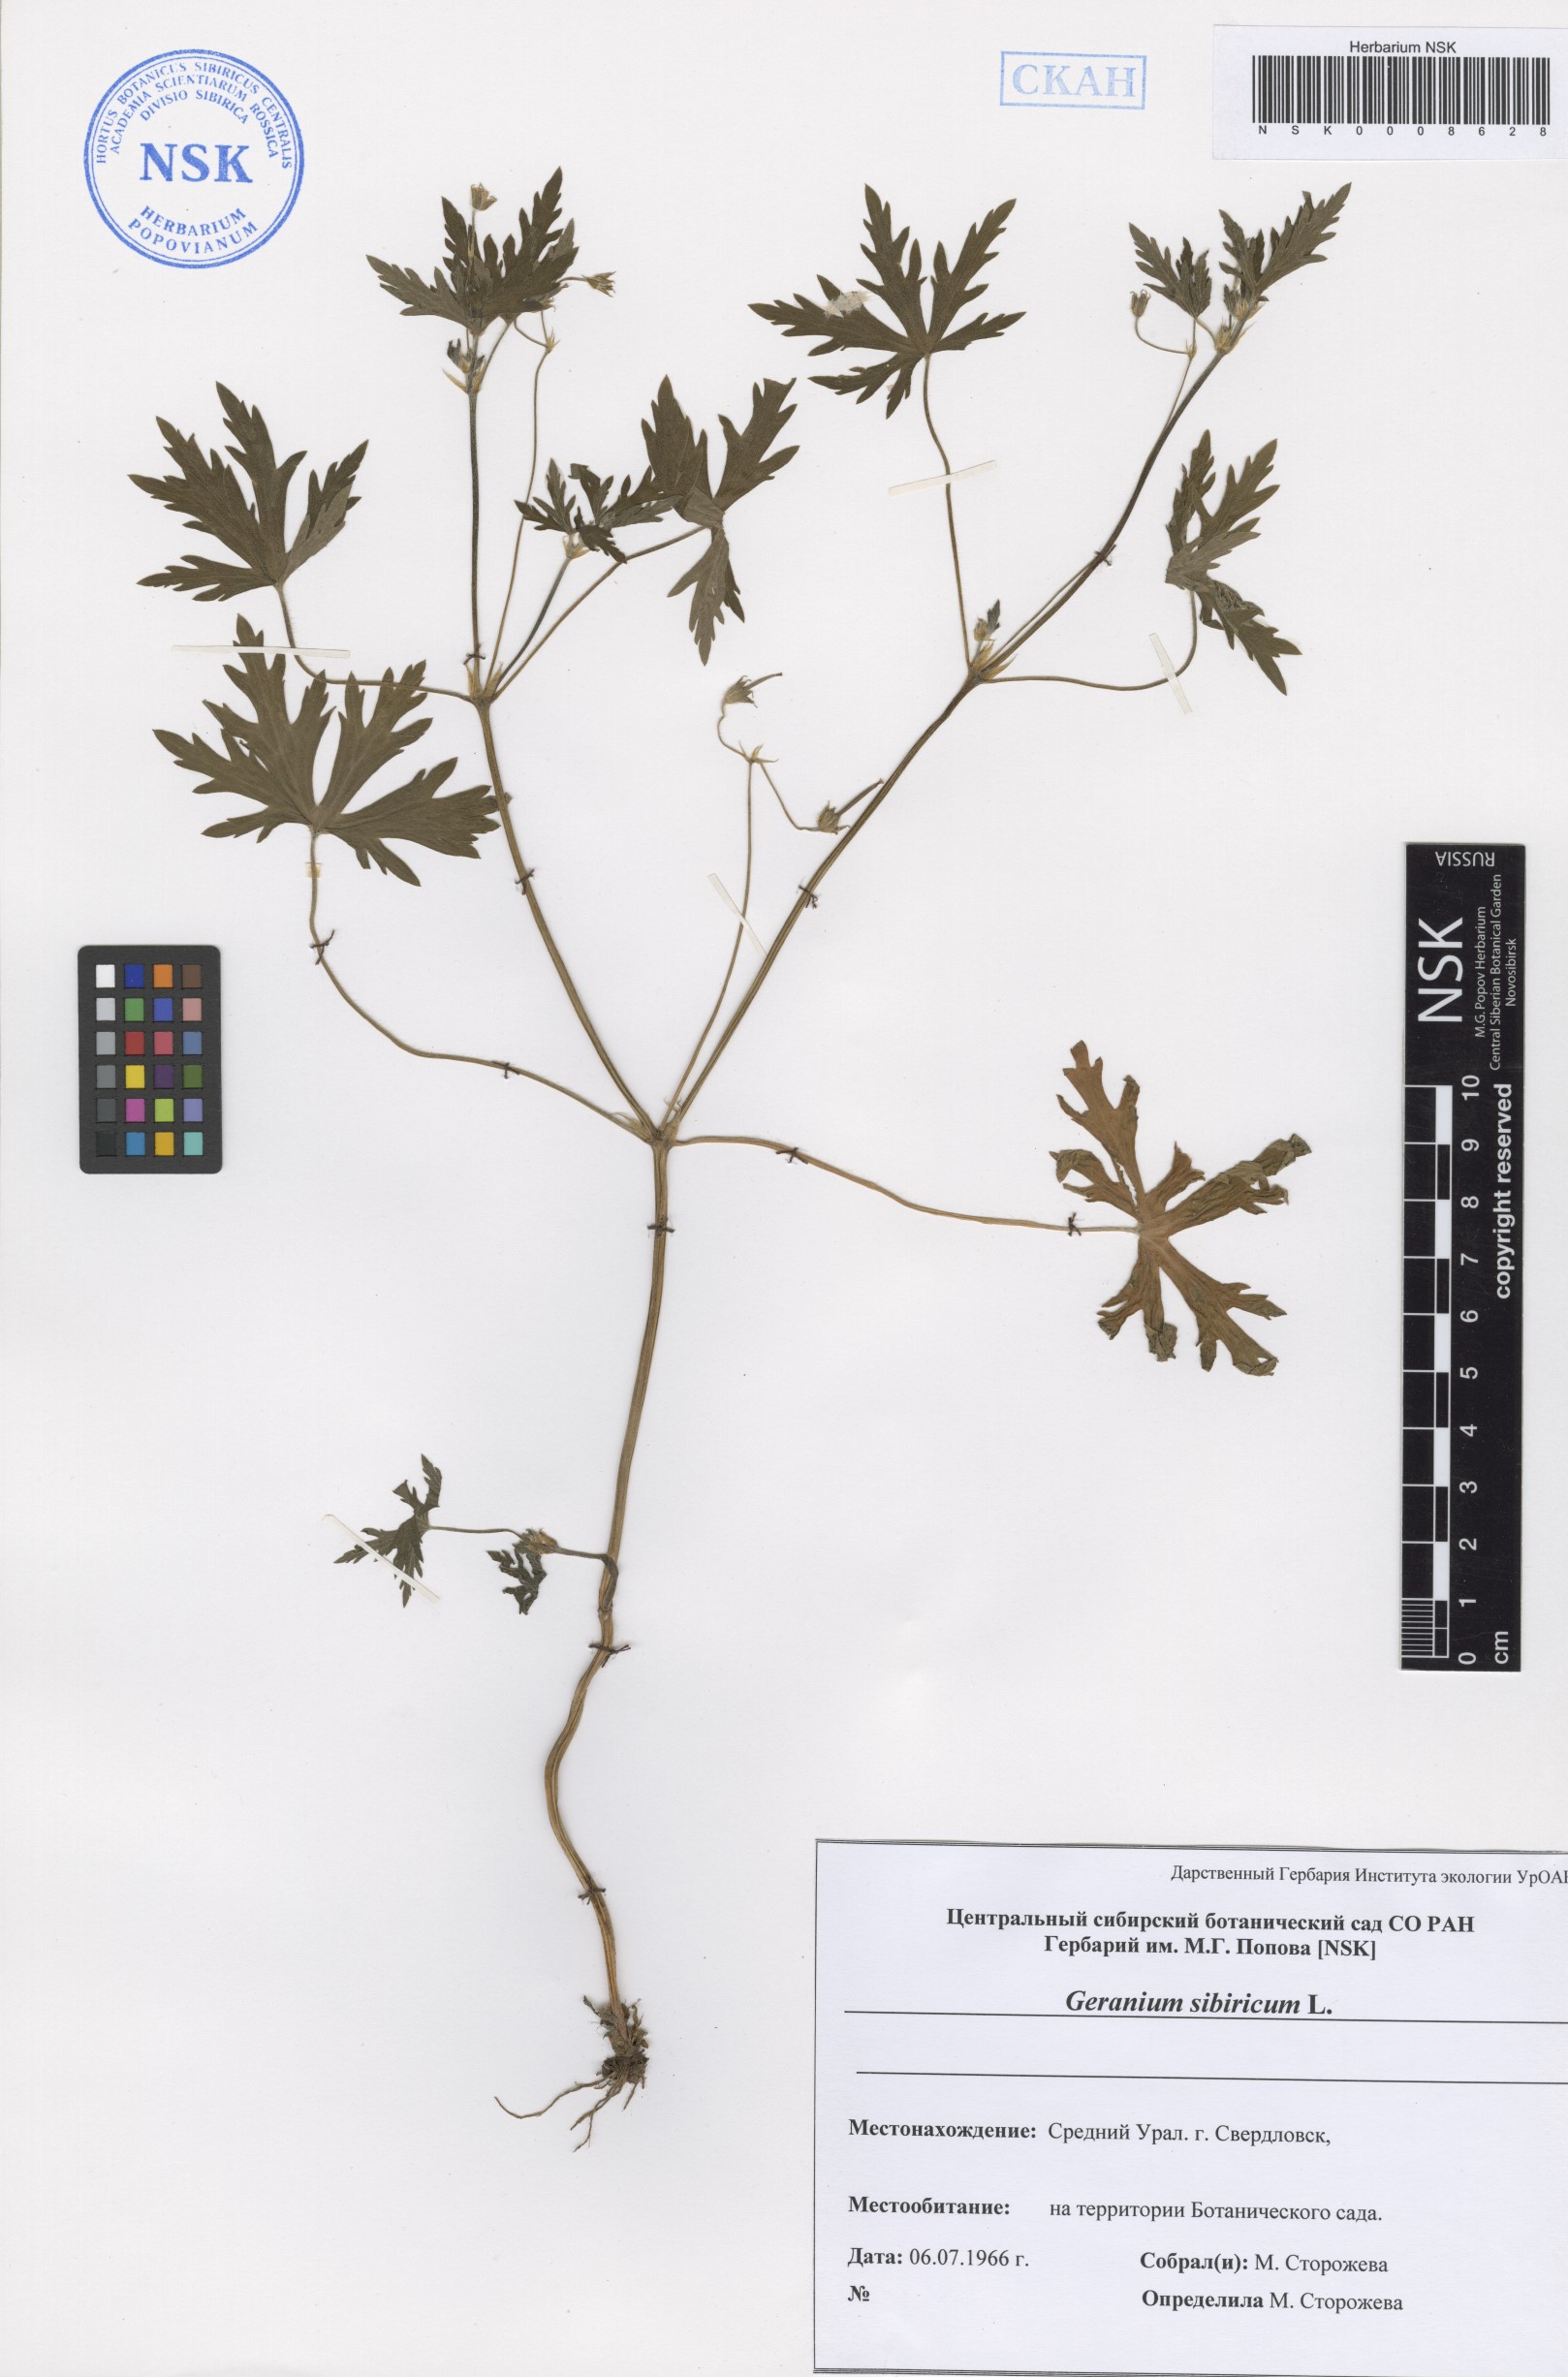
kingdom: Plantae
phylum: Tracheophyta
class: Magnoliopsida
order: Geraniales
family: Geraniaceae
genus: Geranium
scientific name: Geranium sibiricum
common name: Siberian crane's-bill
